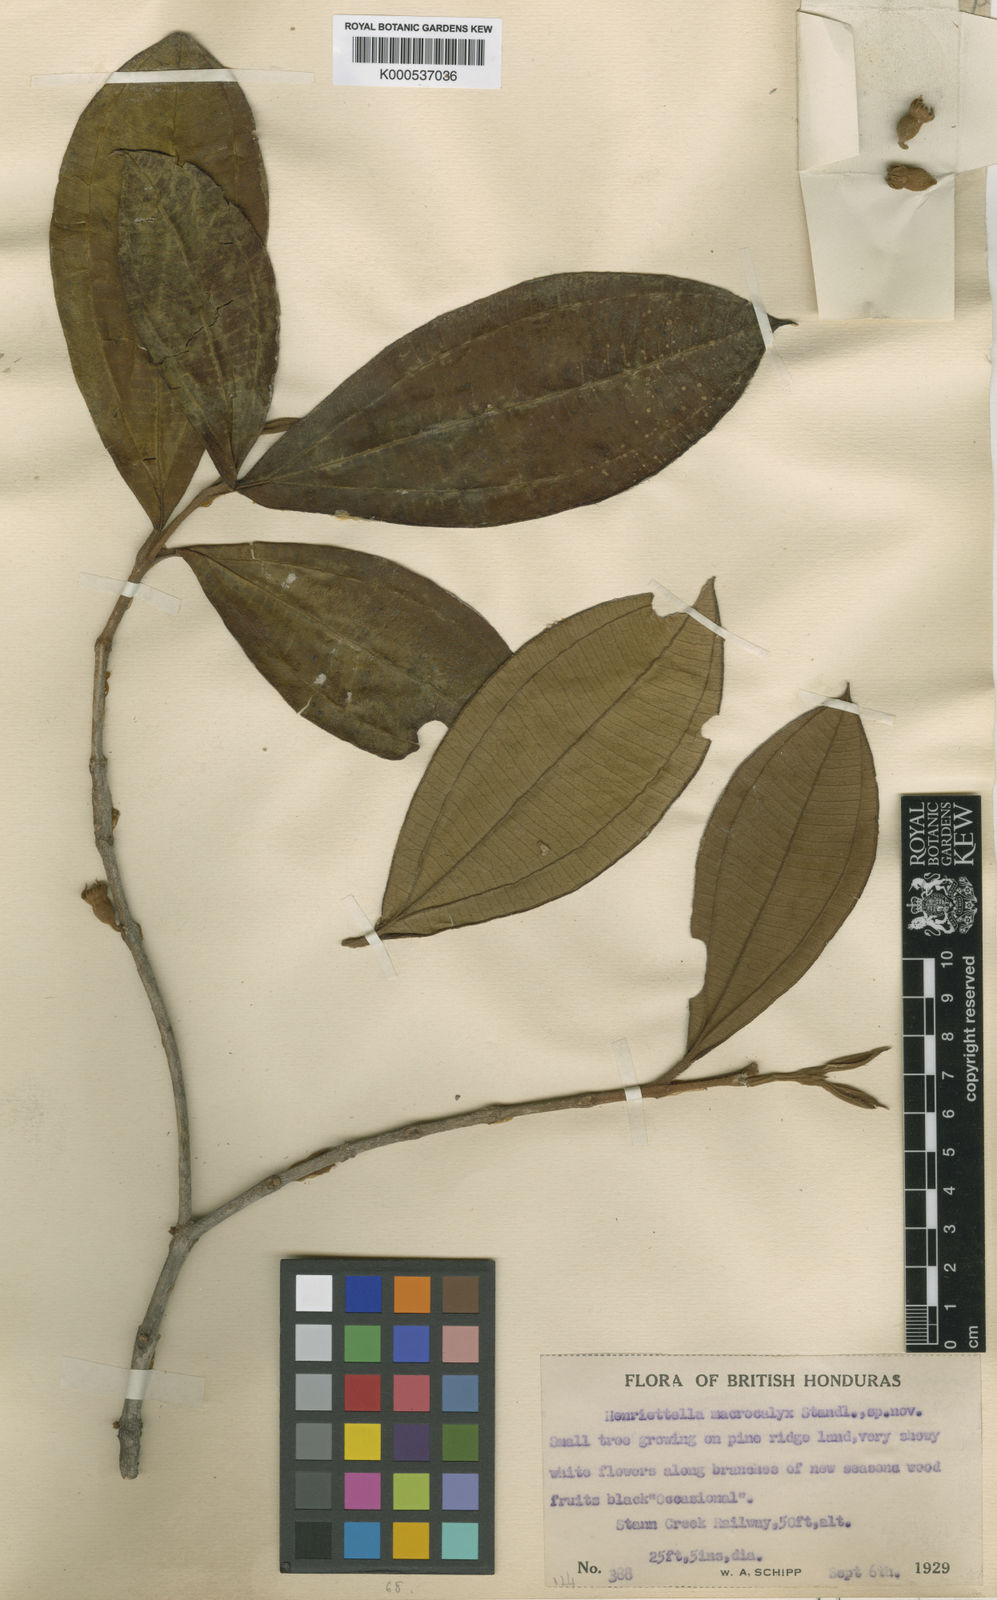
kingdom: Plantae
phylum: Tracheophyta
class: Magnoliopsida
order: Myrtales
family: Melastomataceae
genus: Henriettea
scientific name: Henriettea succosa
